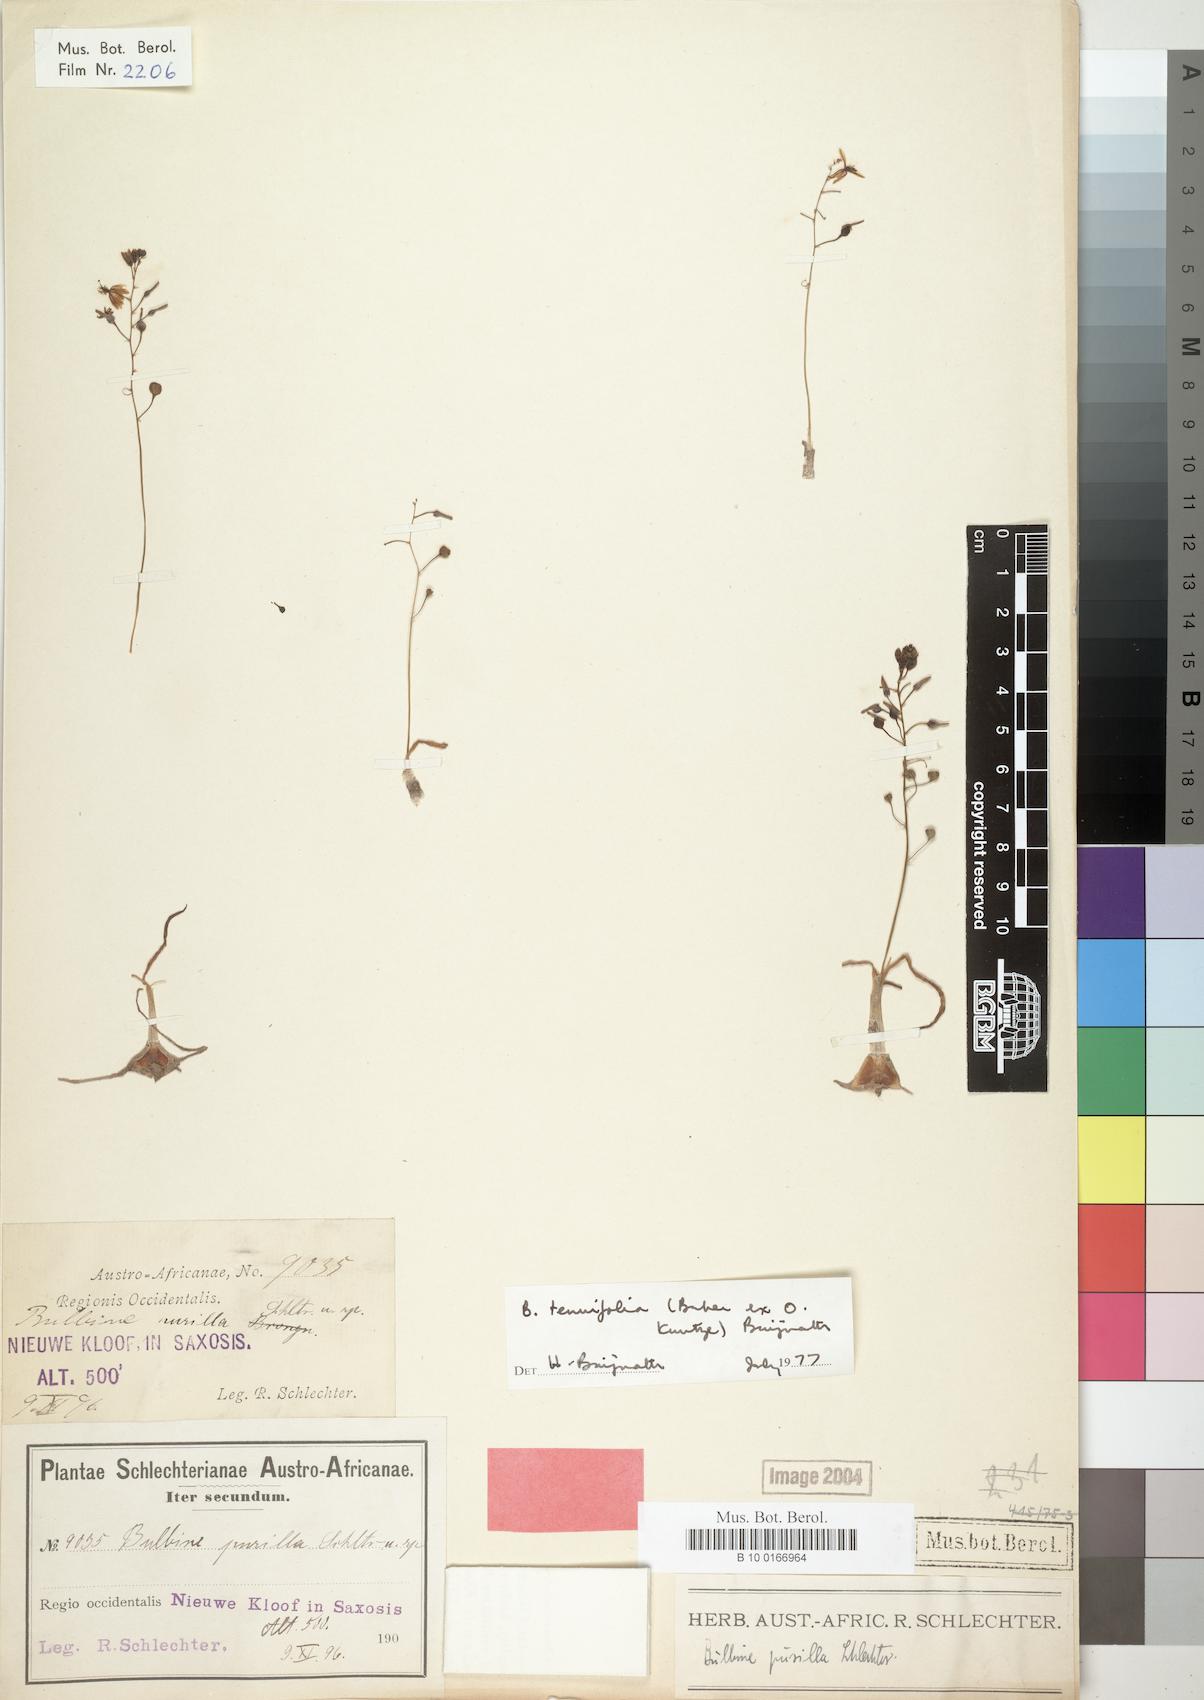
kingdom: Plantae
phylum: Tracheophyta
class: Liliopsida
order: Liliales
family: Liliaceae
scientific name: Liliaceae
